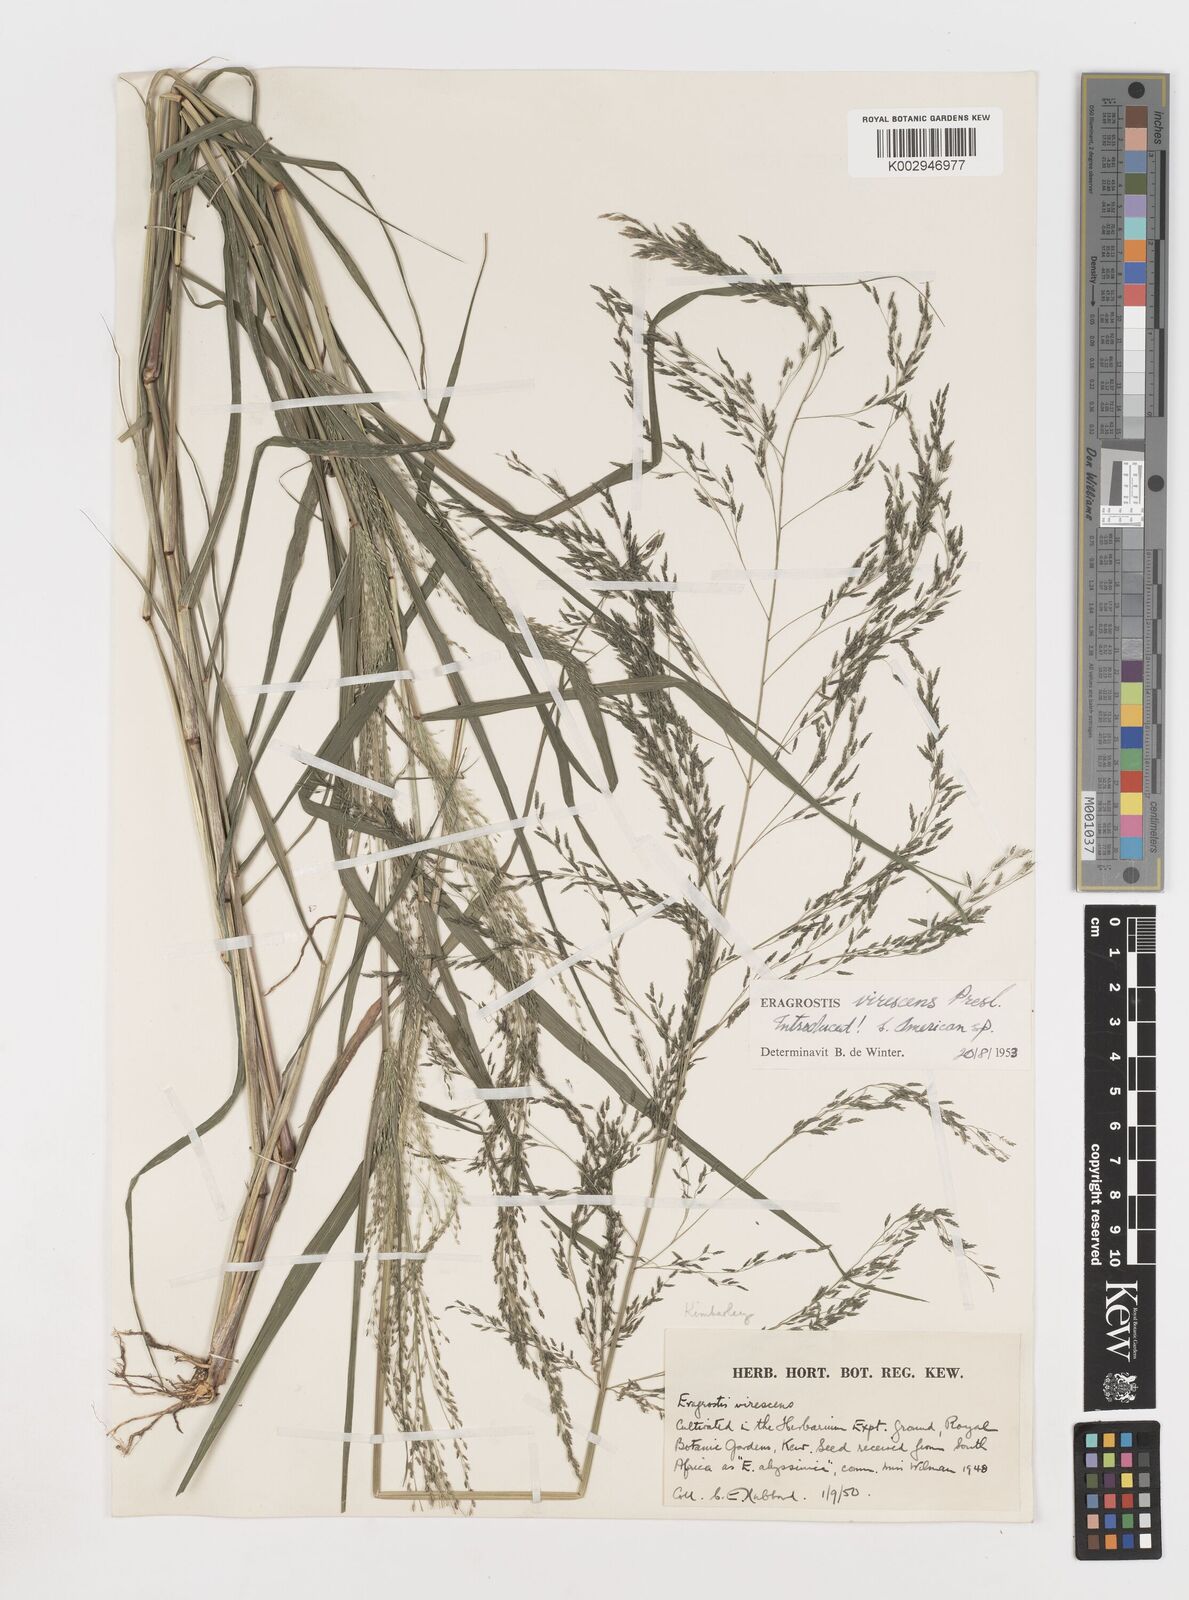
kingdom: Plantae
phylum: Tracheophyta
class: Liliopsida
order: Poales
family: Poaceae
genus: Eragrostis
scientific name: Eragrostis
